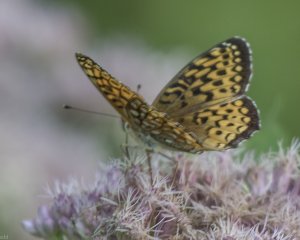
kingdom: Animalia
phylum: Arthropoda
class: Insecta
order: Lepidoptera
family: Nymphalidae
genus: Speyeria
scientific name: Speyeria atlantis
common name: Atlantis Fritillary
